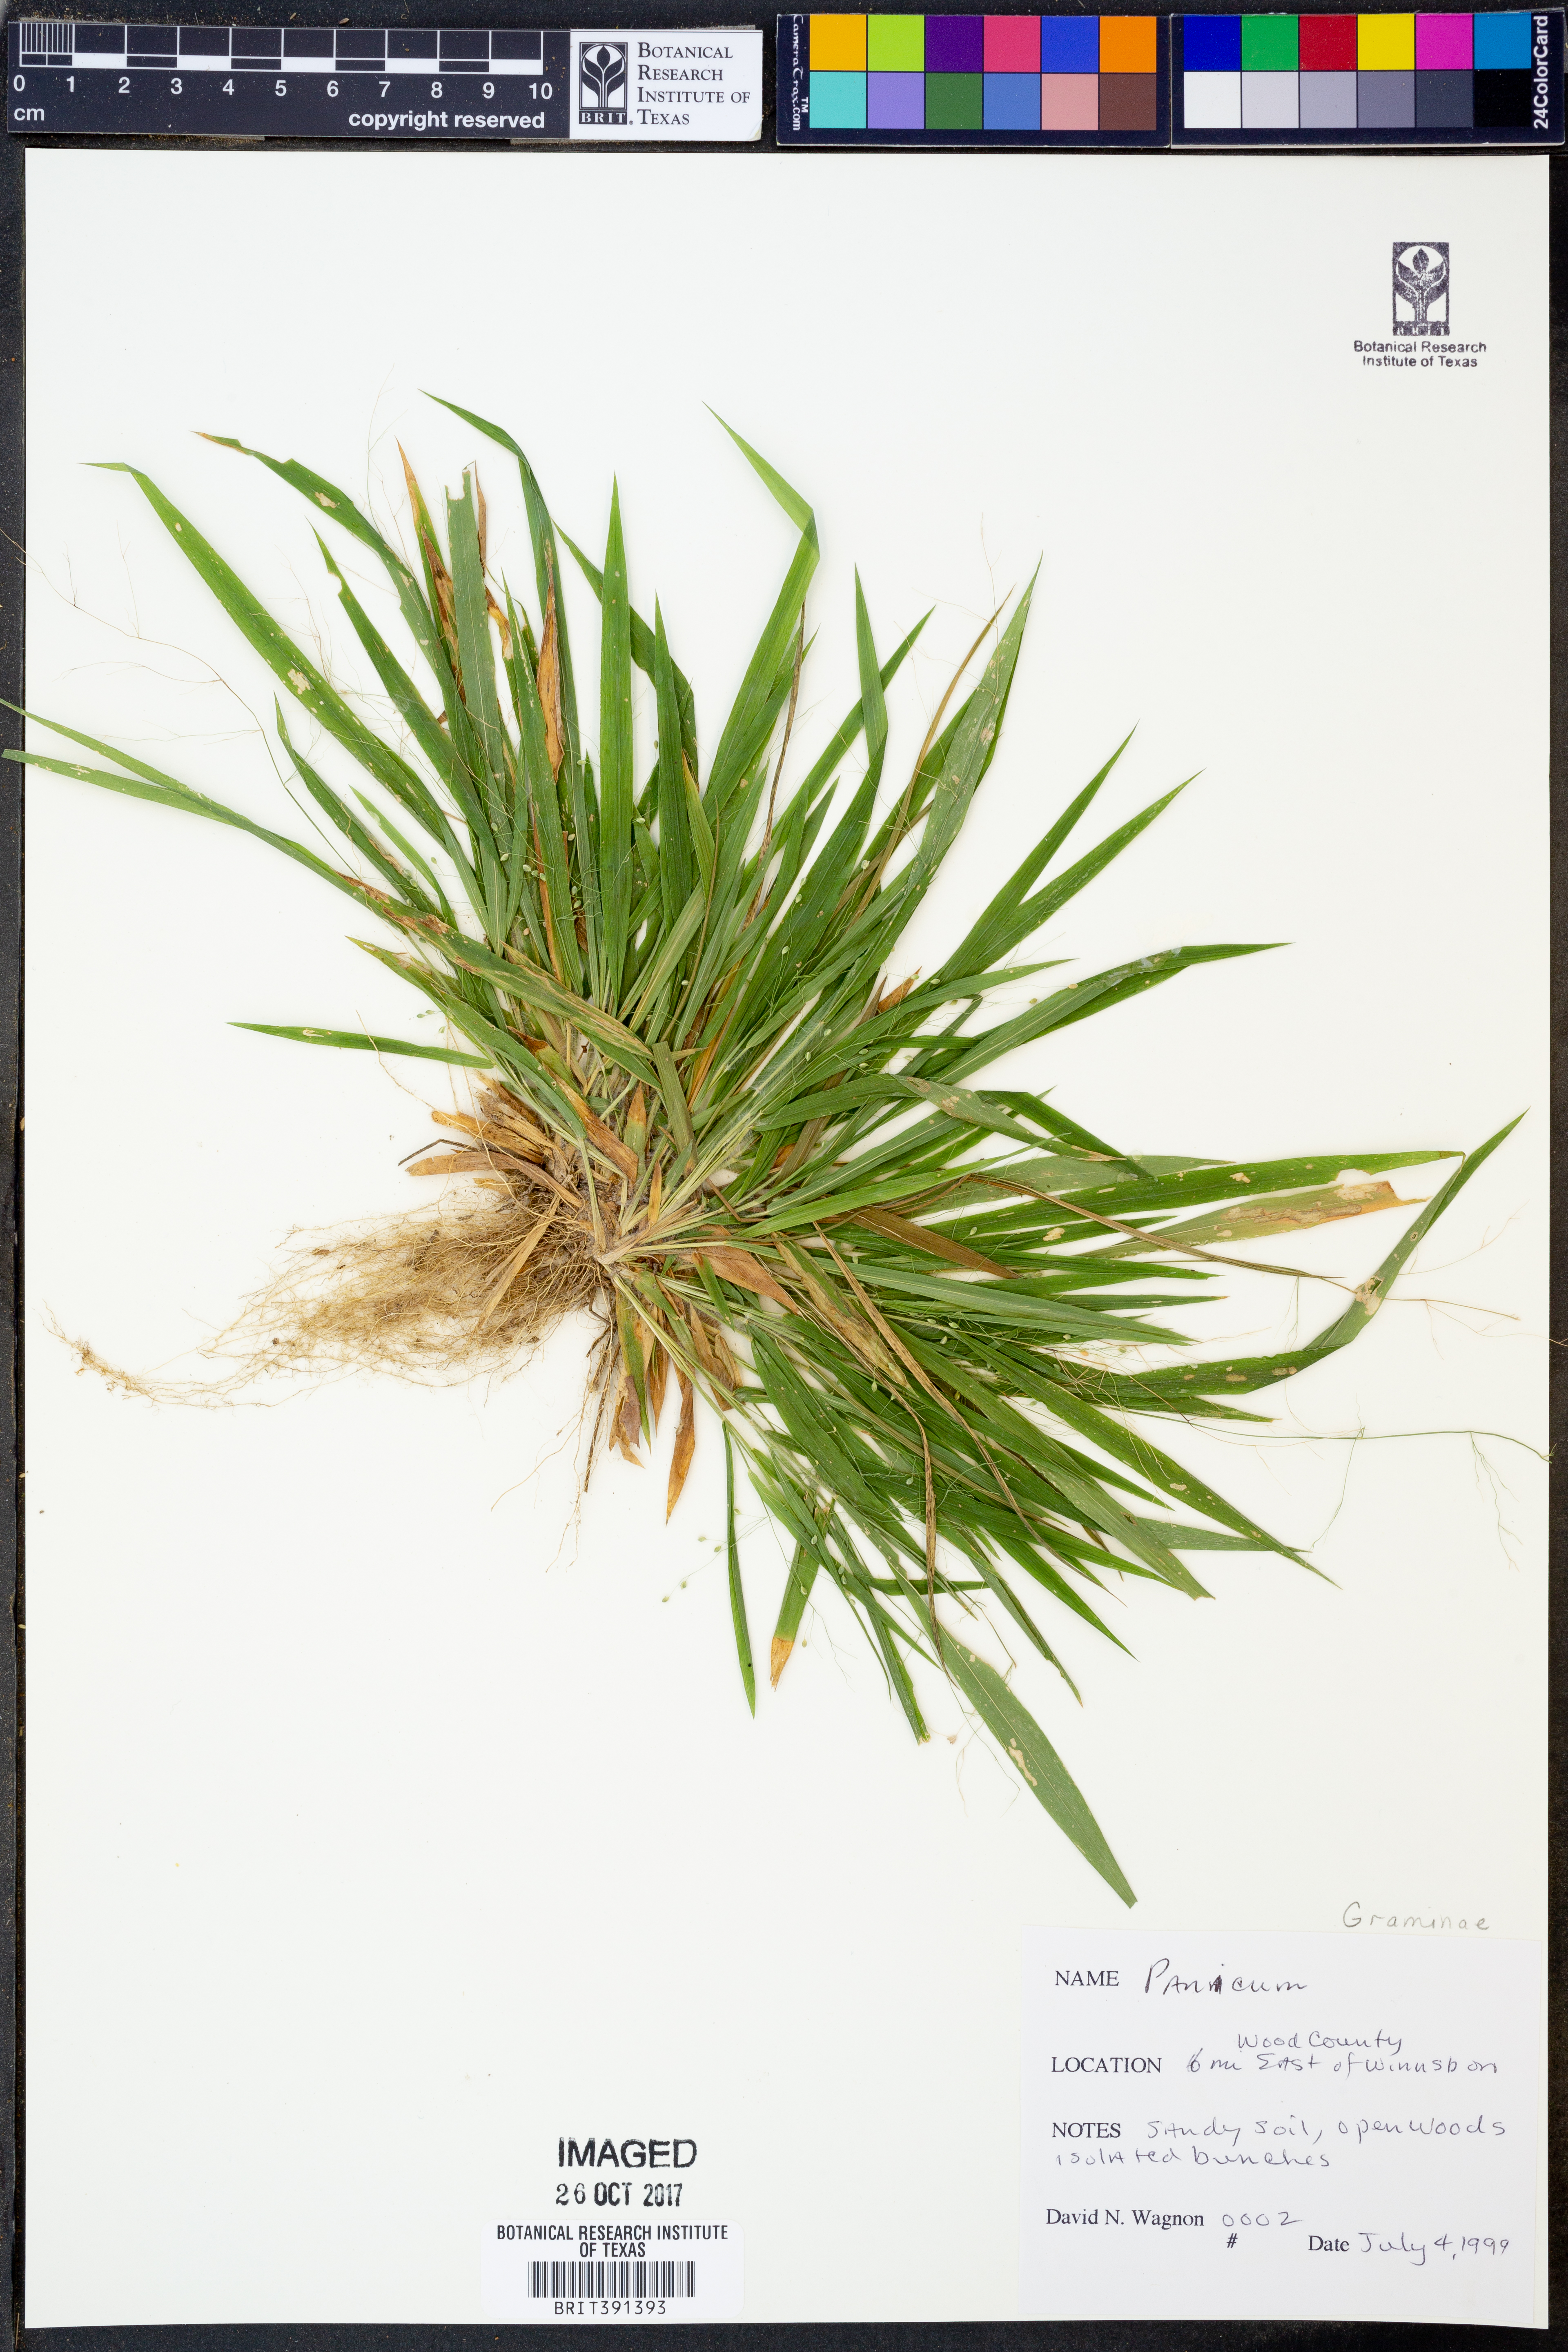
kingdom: Plantae
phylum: Tracheophyta
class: Liliopsida
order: Poales
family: Poaceae
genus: Panicum
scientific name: Panicum
